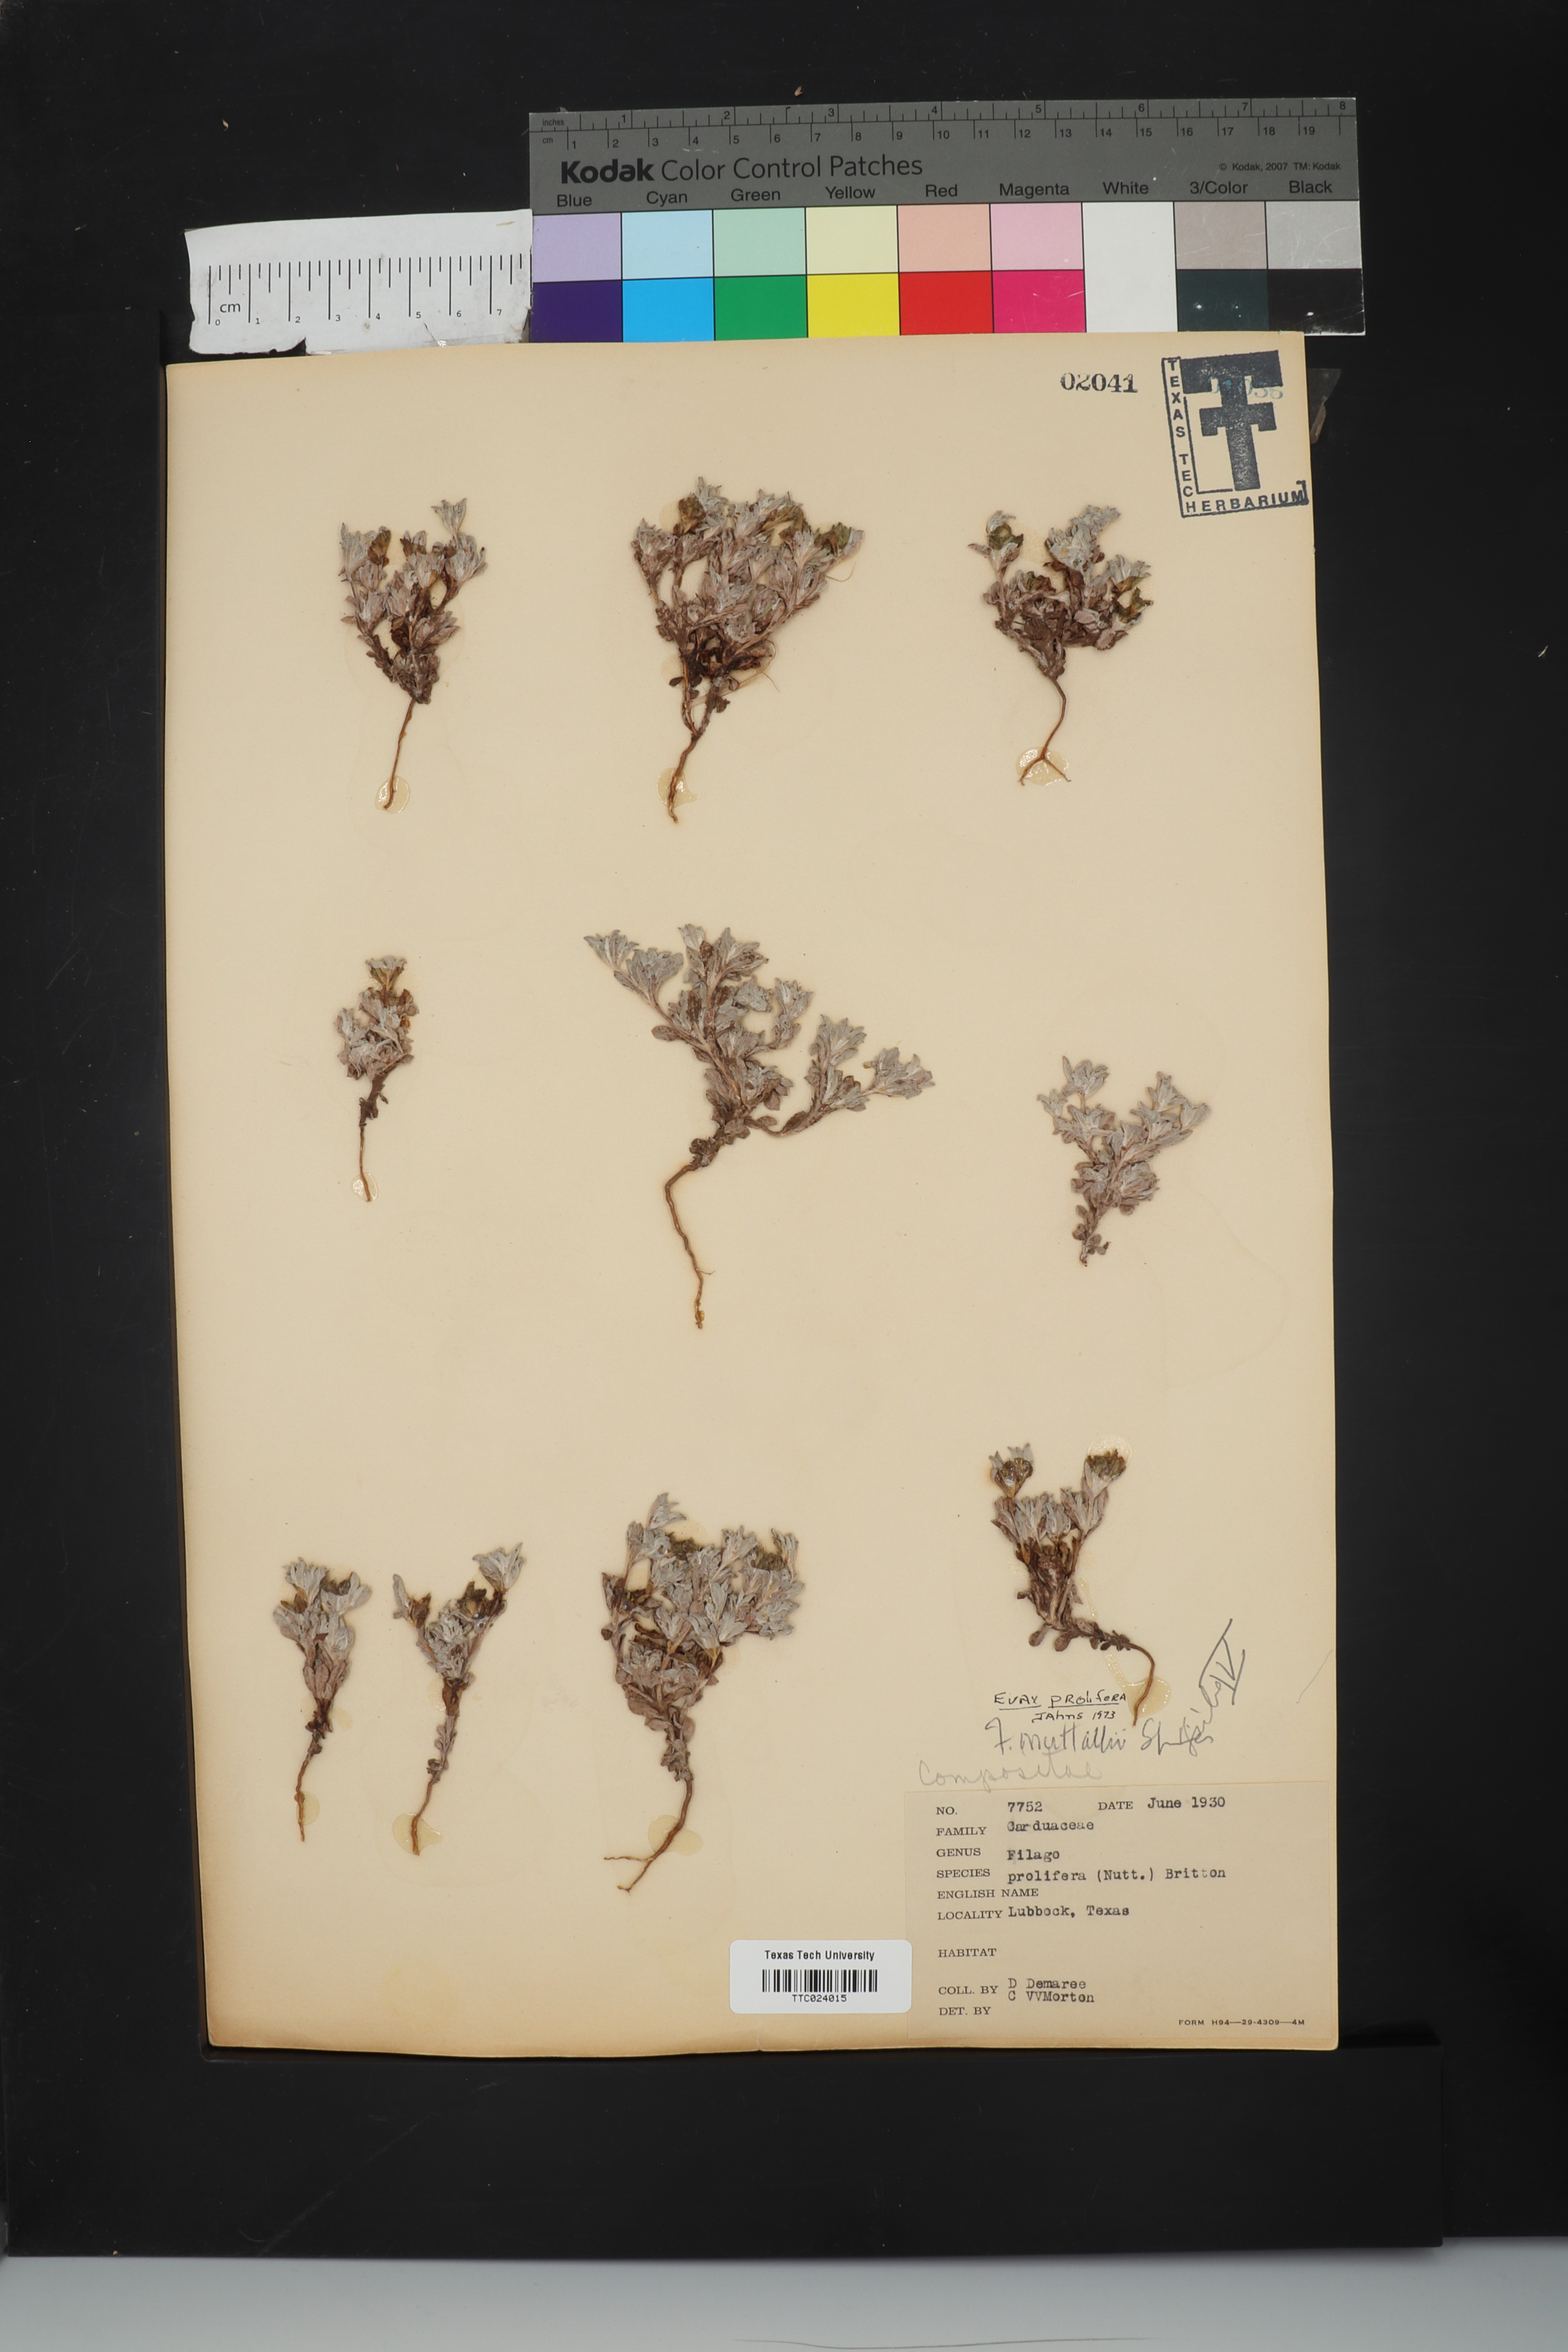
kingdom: Plantae
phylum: Tracheophyta
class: Magnoliopsida
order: Asterales
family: Asteraceae
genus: Filago
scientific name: Filago prolifera
